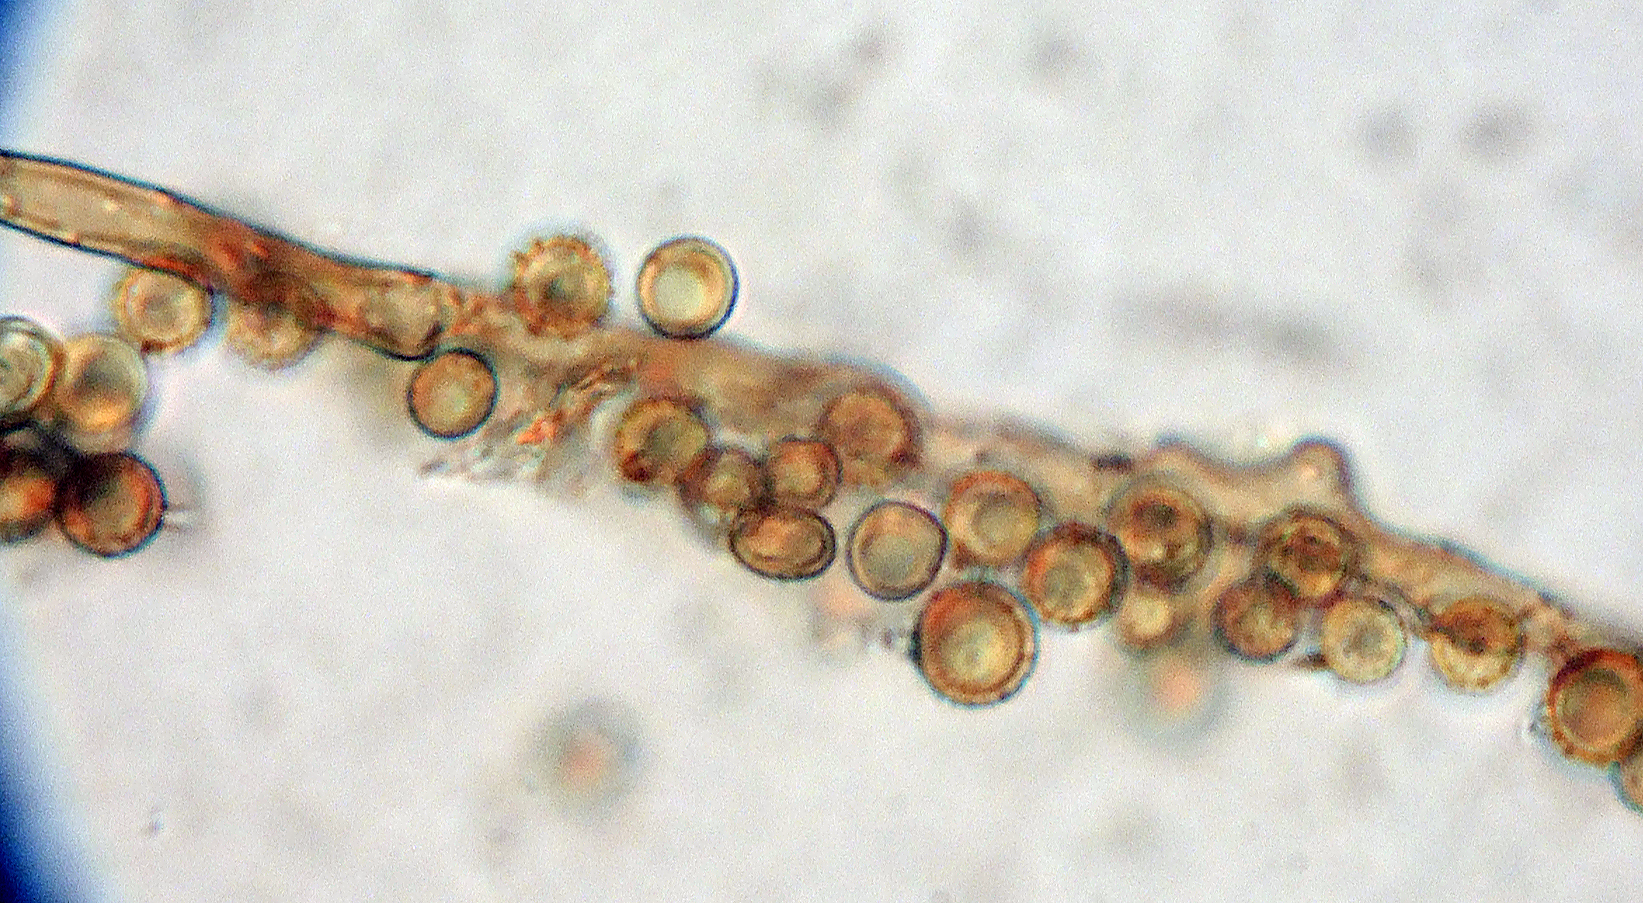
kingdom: Fungi
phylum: Basidiomycota
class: Agaricomycetes
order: Agaricales
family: Lycoperdaceae
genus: Lycoperdon
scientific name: Lycoperdon lividum
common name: mark-støvbold
